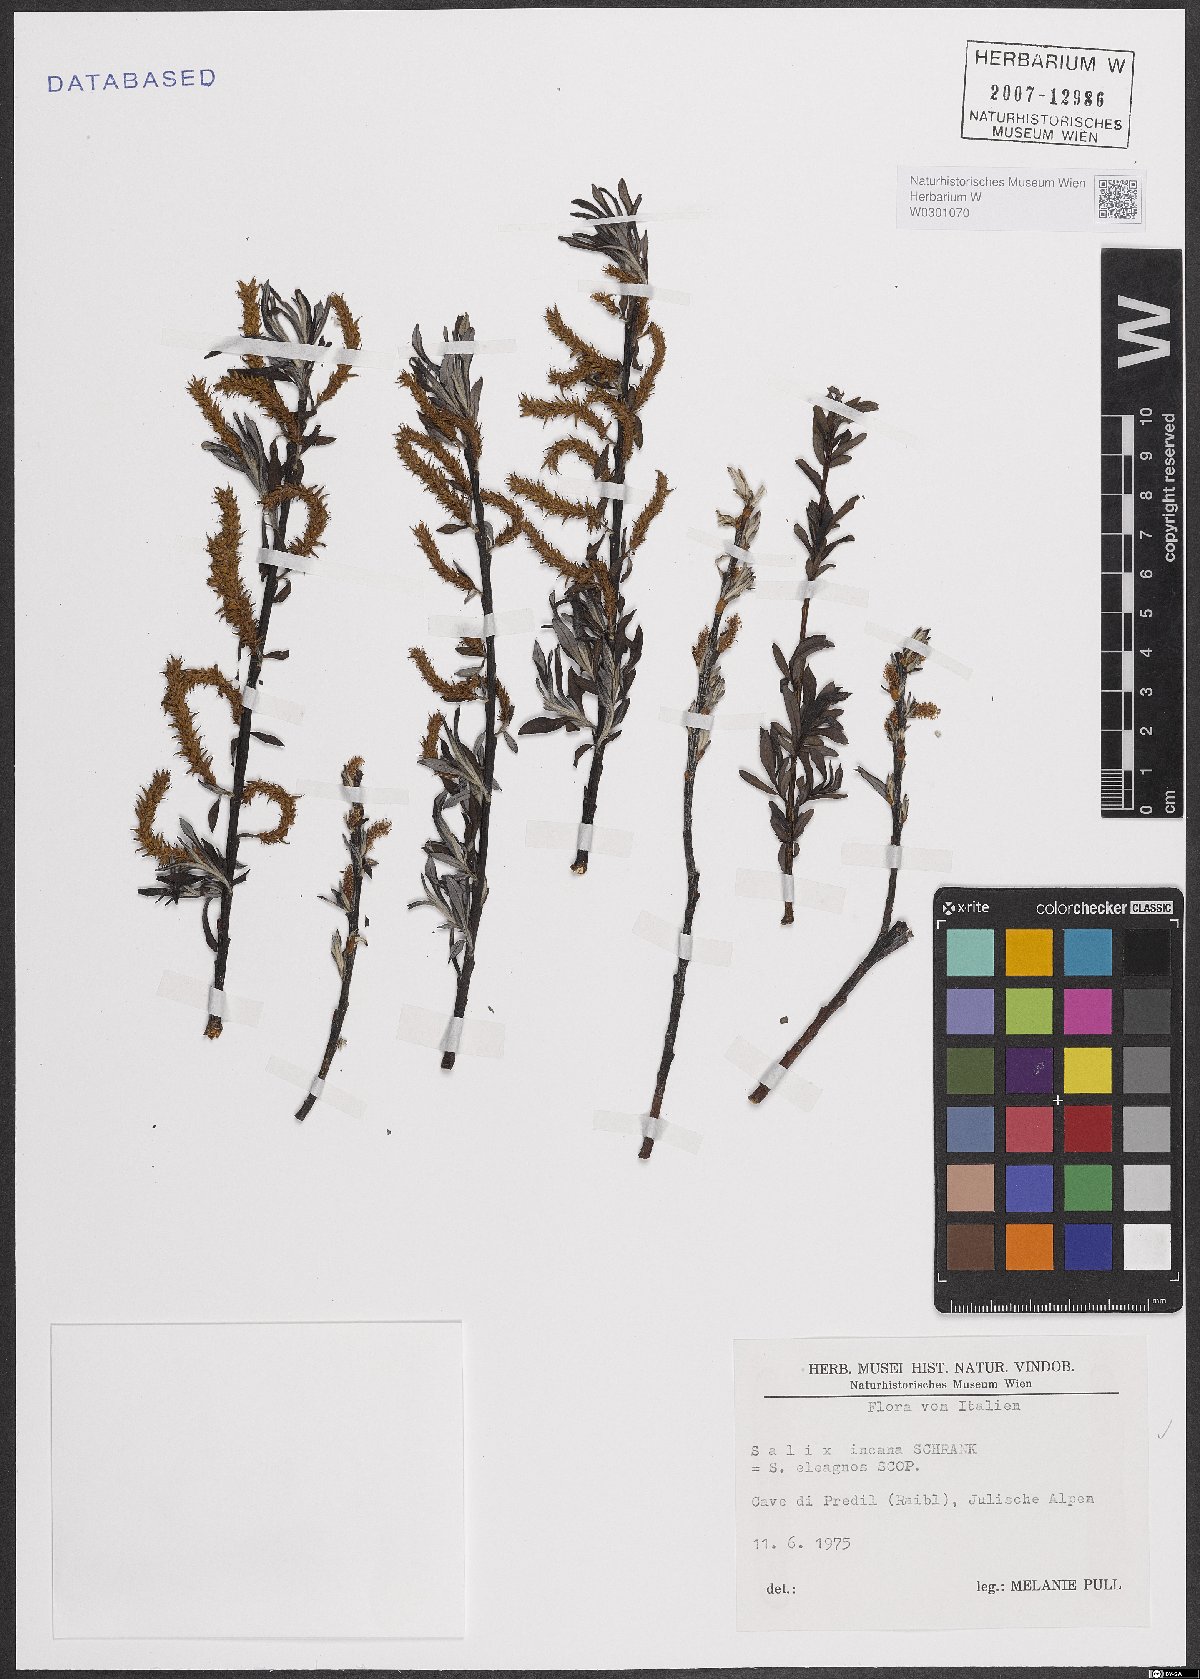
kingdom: Plantae
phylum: Tracheophyta
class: Magnoliopsida
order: Malpighiales
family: Salicaceae
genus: Salix
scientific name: Salix eleagnos
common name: Elaeagnus willow
